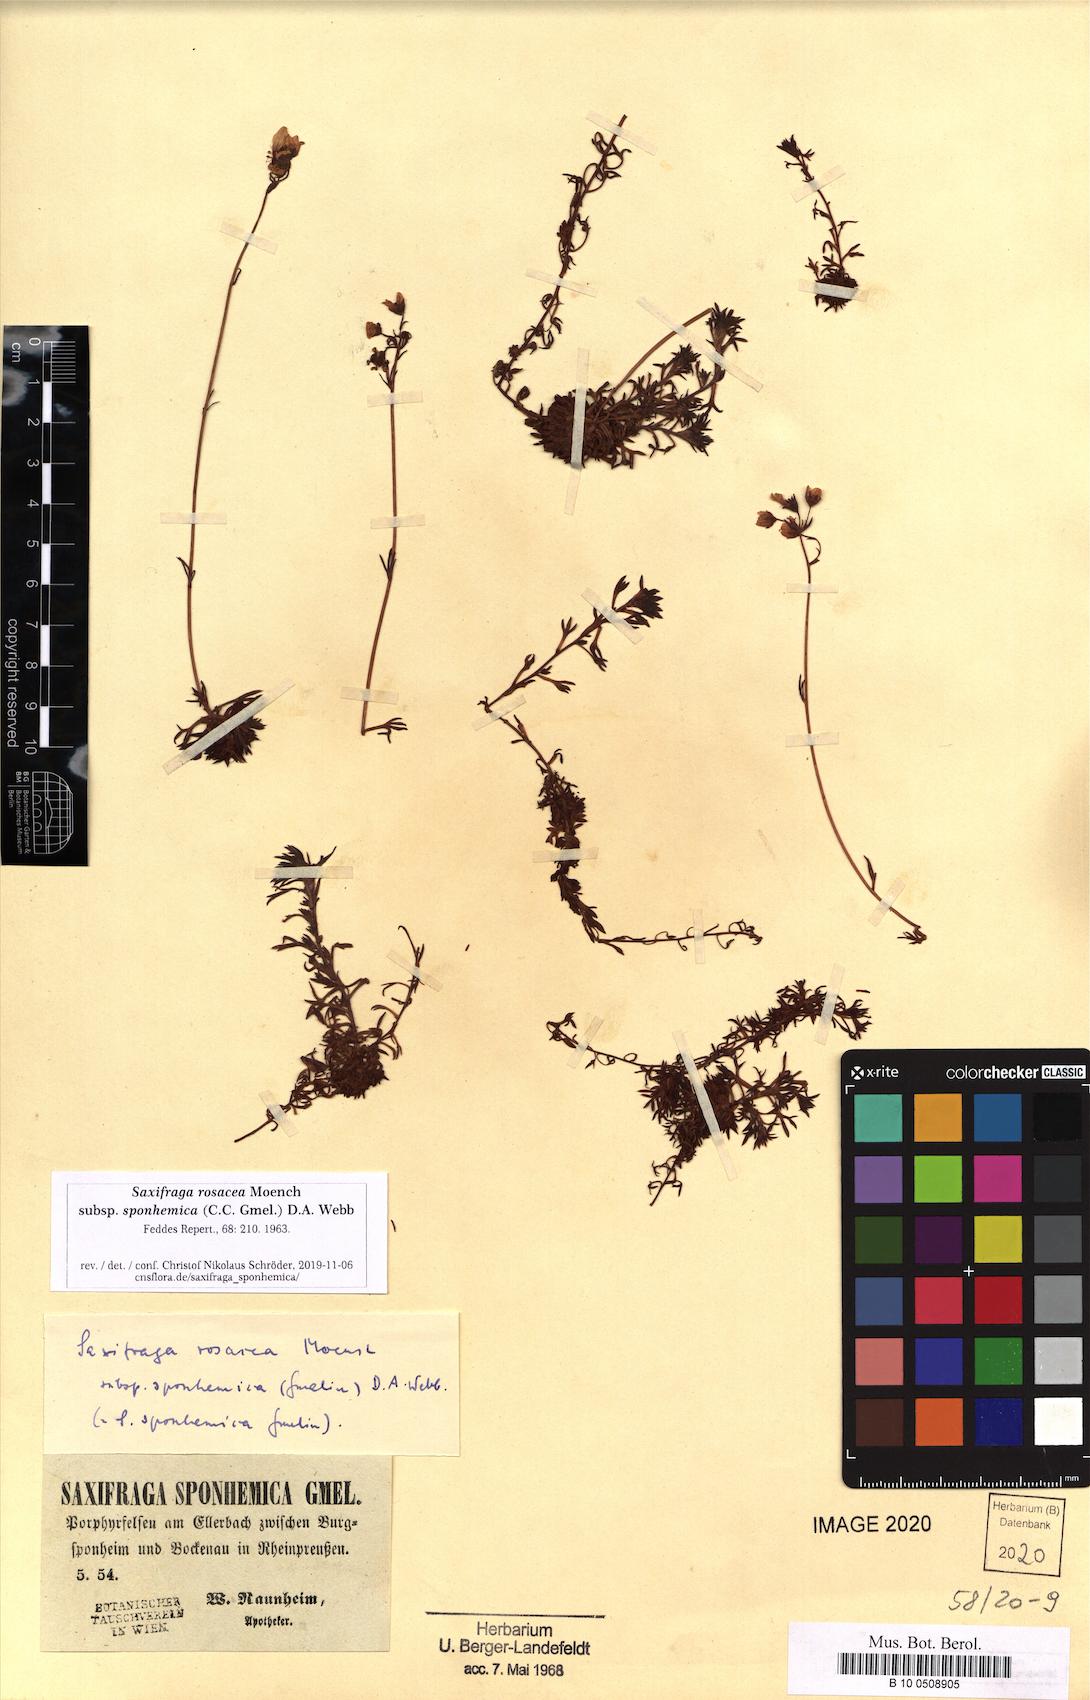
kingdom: Plantae
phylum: Tracheophyta
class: Magnoliopsida
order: Saxifragales
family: Saxifragaceae
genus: Saxifraga
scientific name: Saxifraga rosacea
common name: Irish saxifrage
